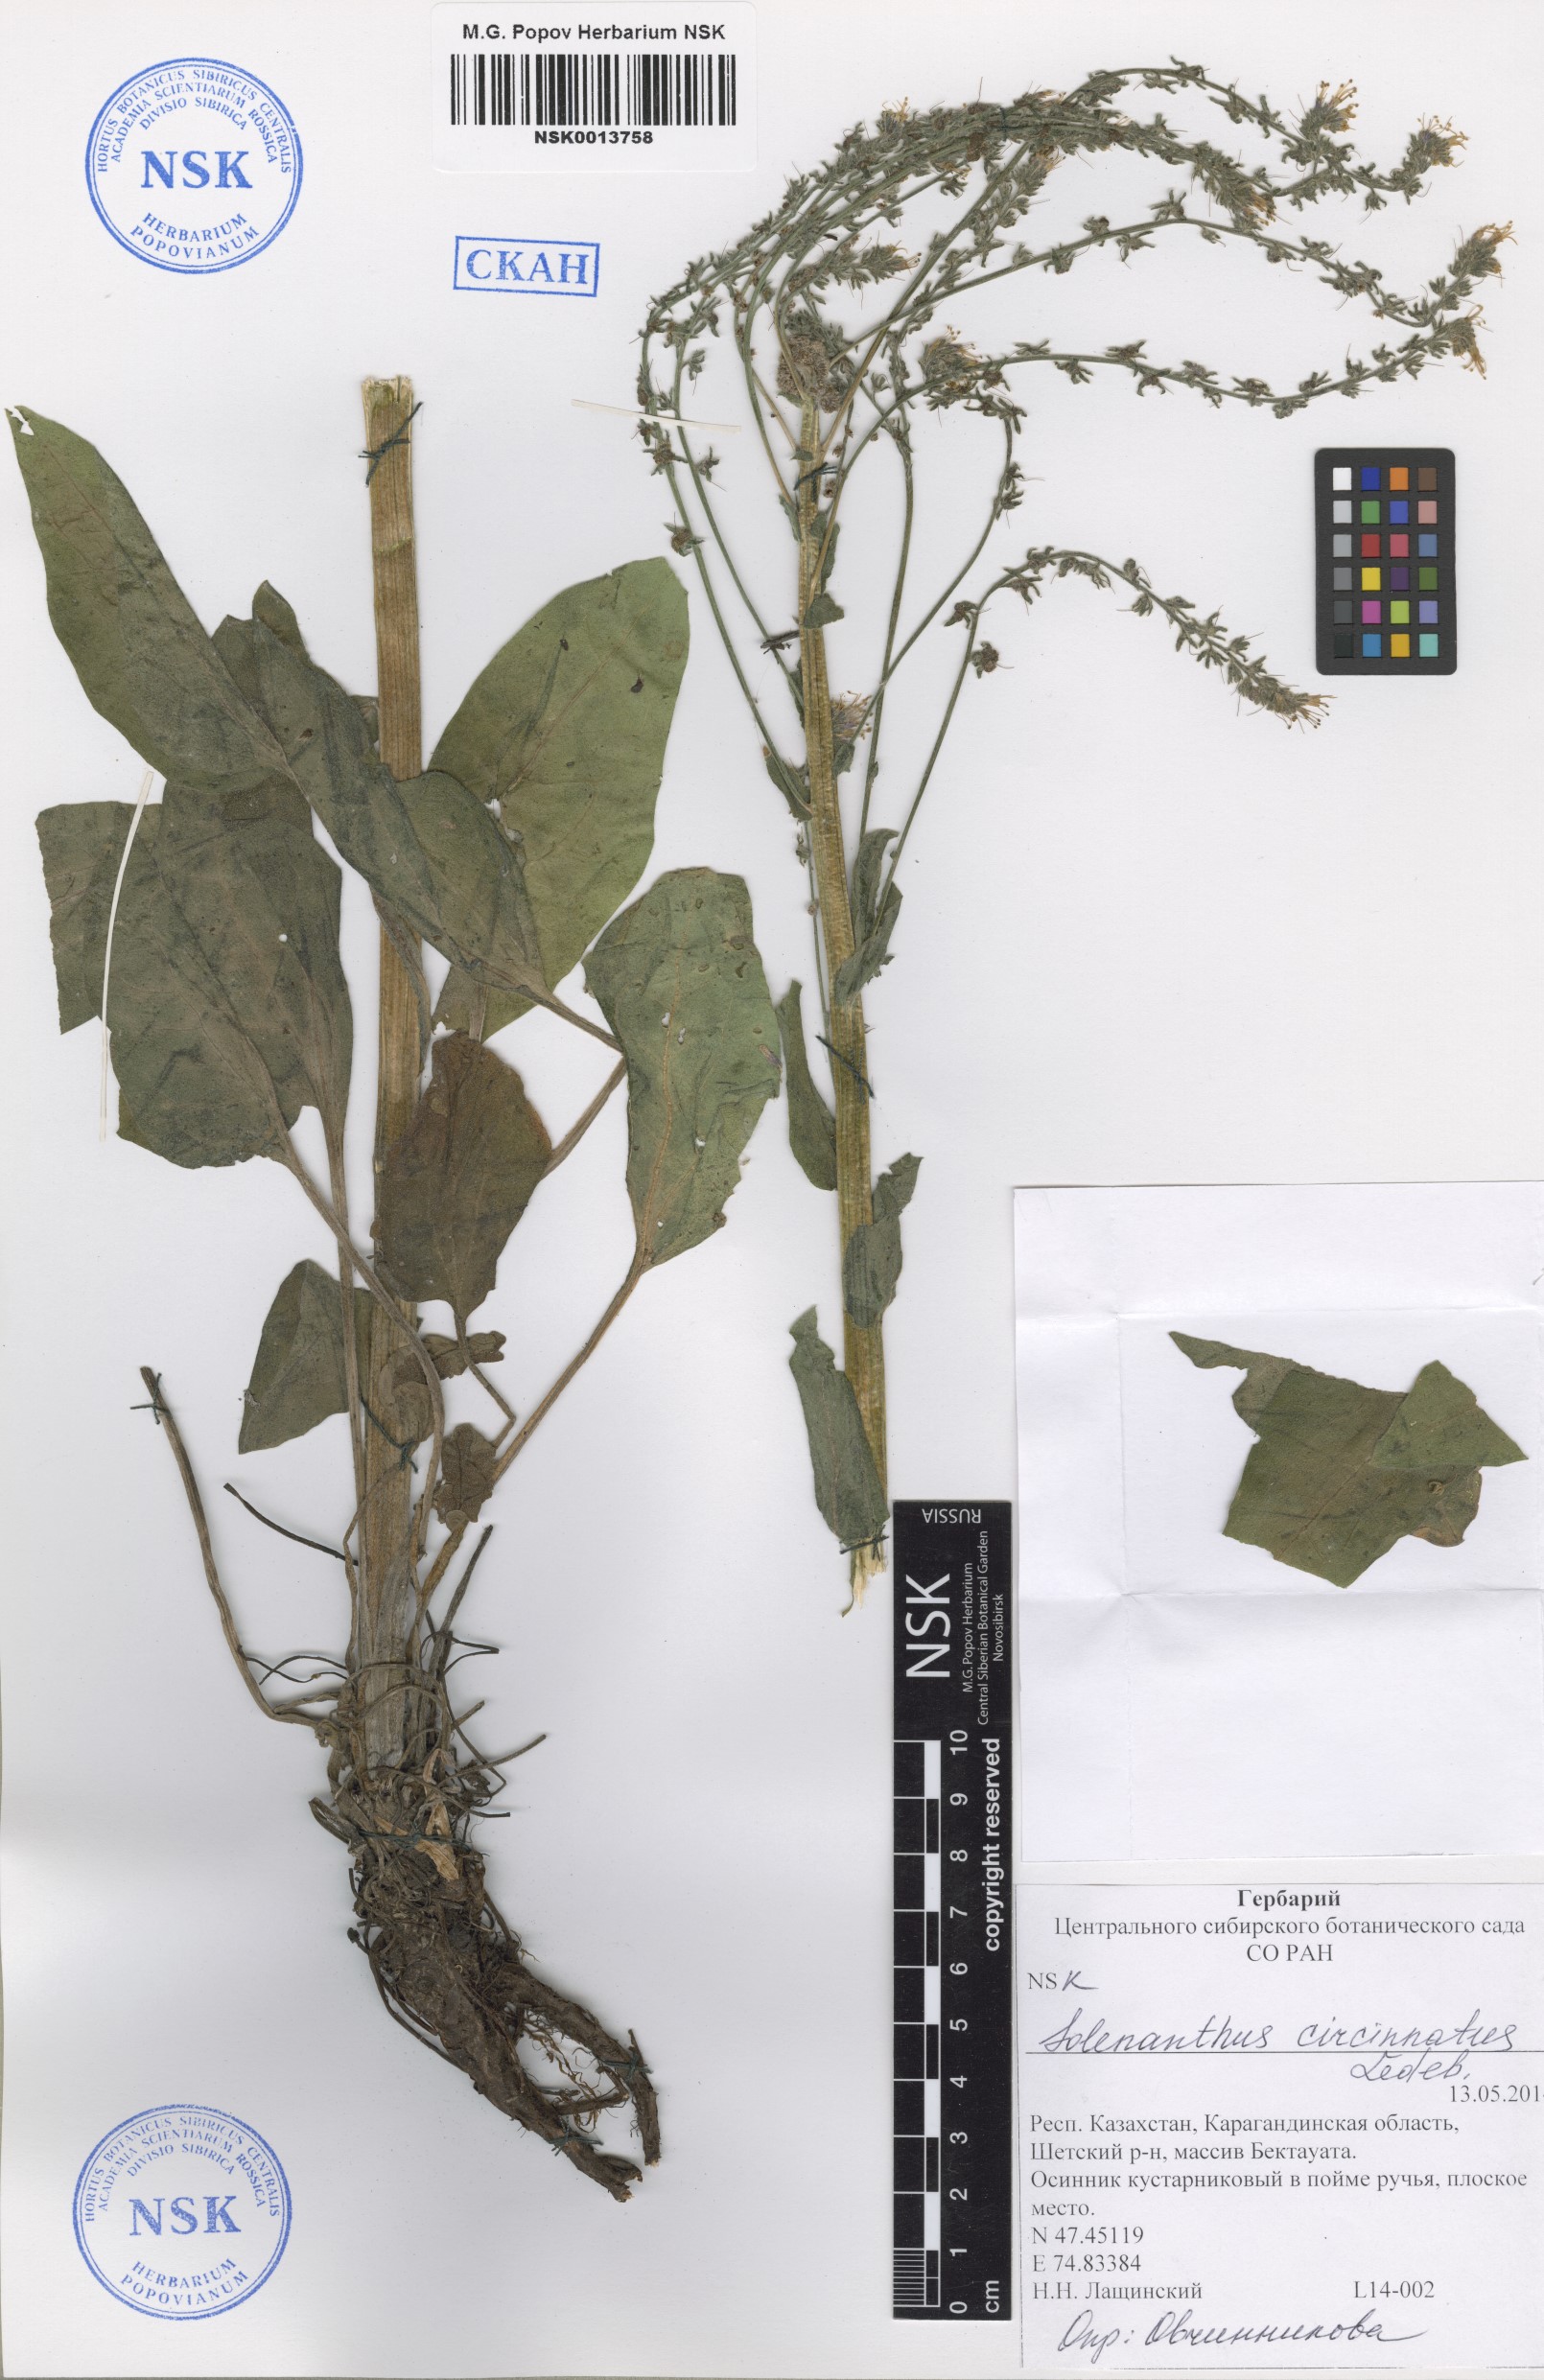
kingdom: Plantae
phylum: Tracheophyta
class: Magnoliopsida
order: Boraginales
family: Boraginaceae
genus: Solenanthus
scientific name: Solenanthus circinnatus
